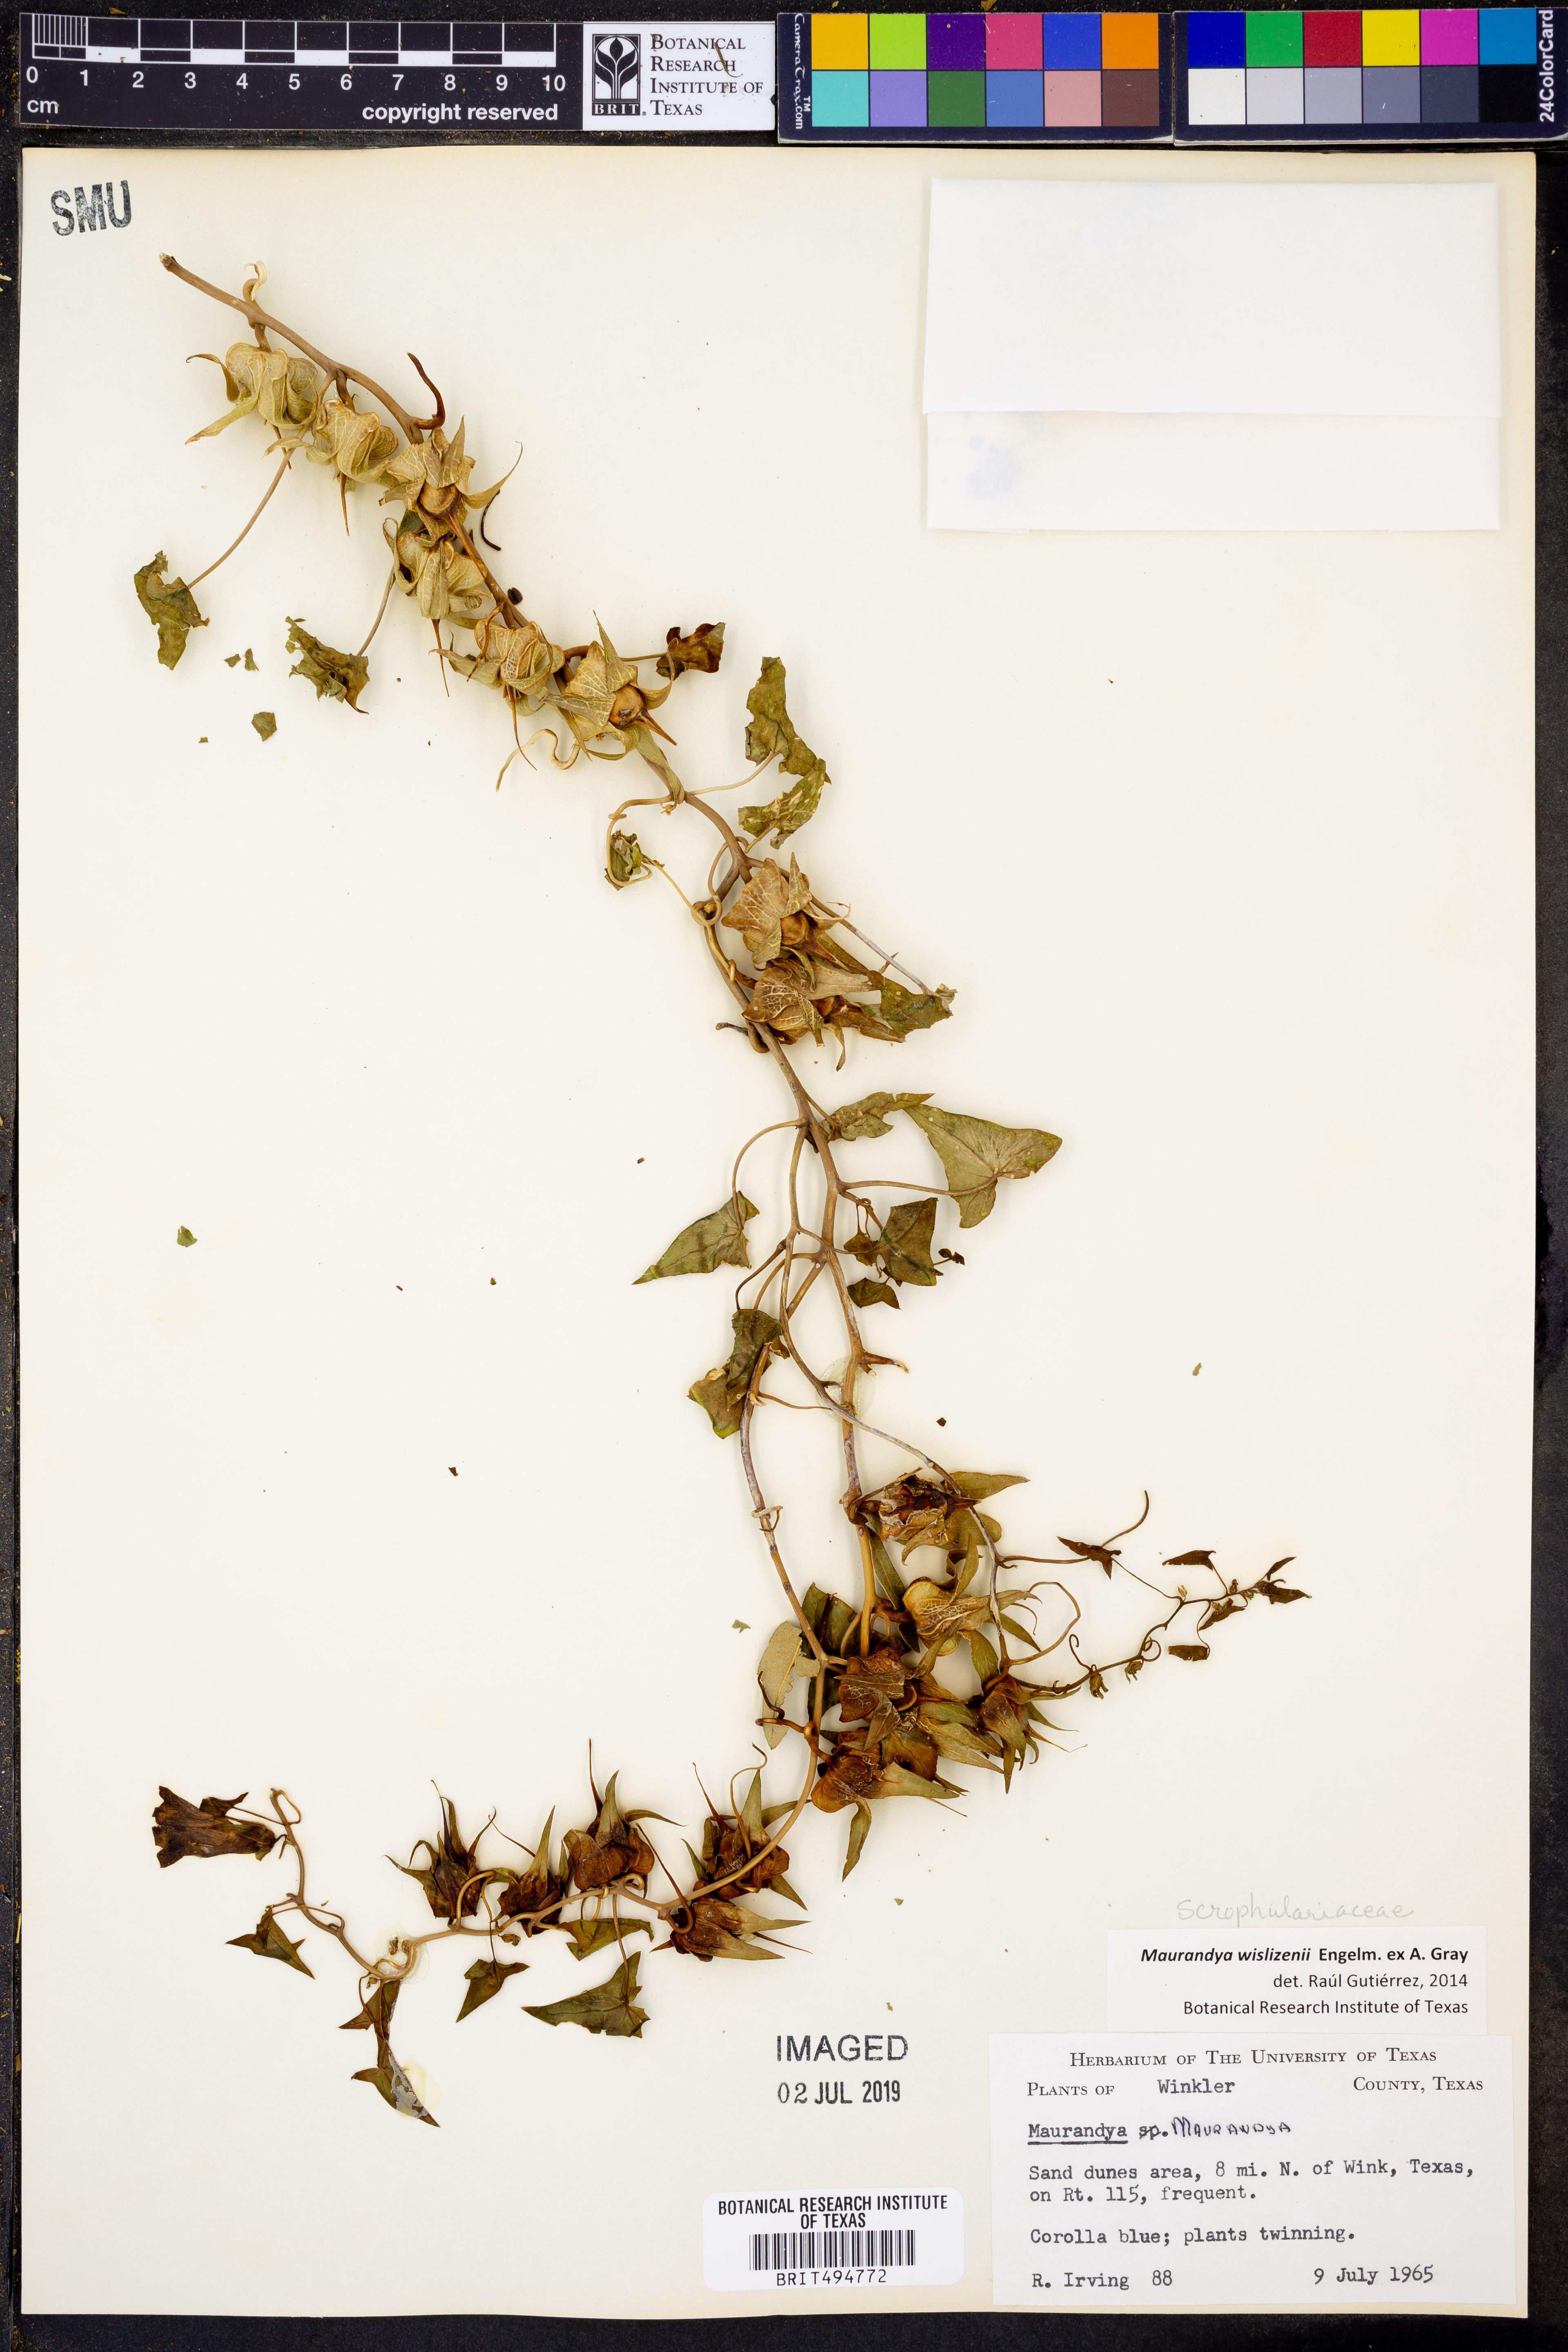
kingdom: Plantae
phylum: Tracheophyta
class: Magnoliopsida
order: Lamiales
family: Plantaginaceae
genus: Epixiphium
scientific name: Epixiphium wislizeni
